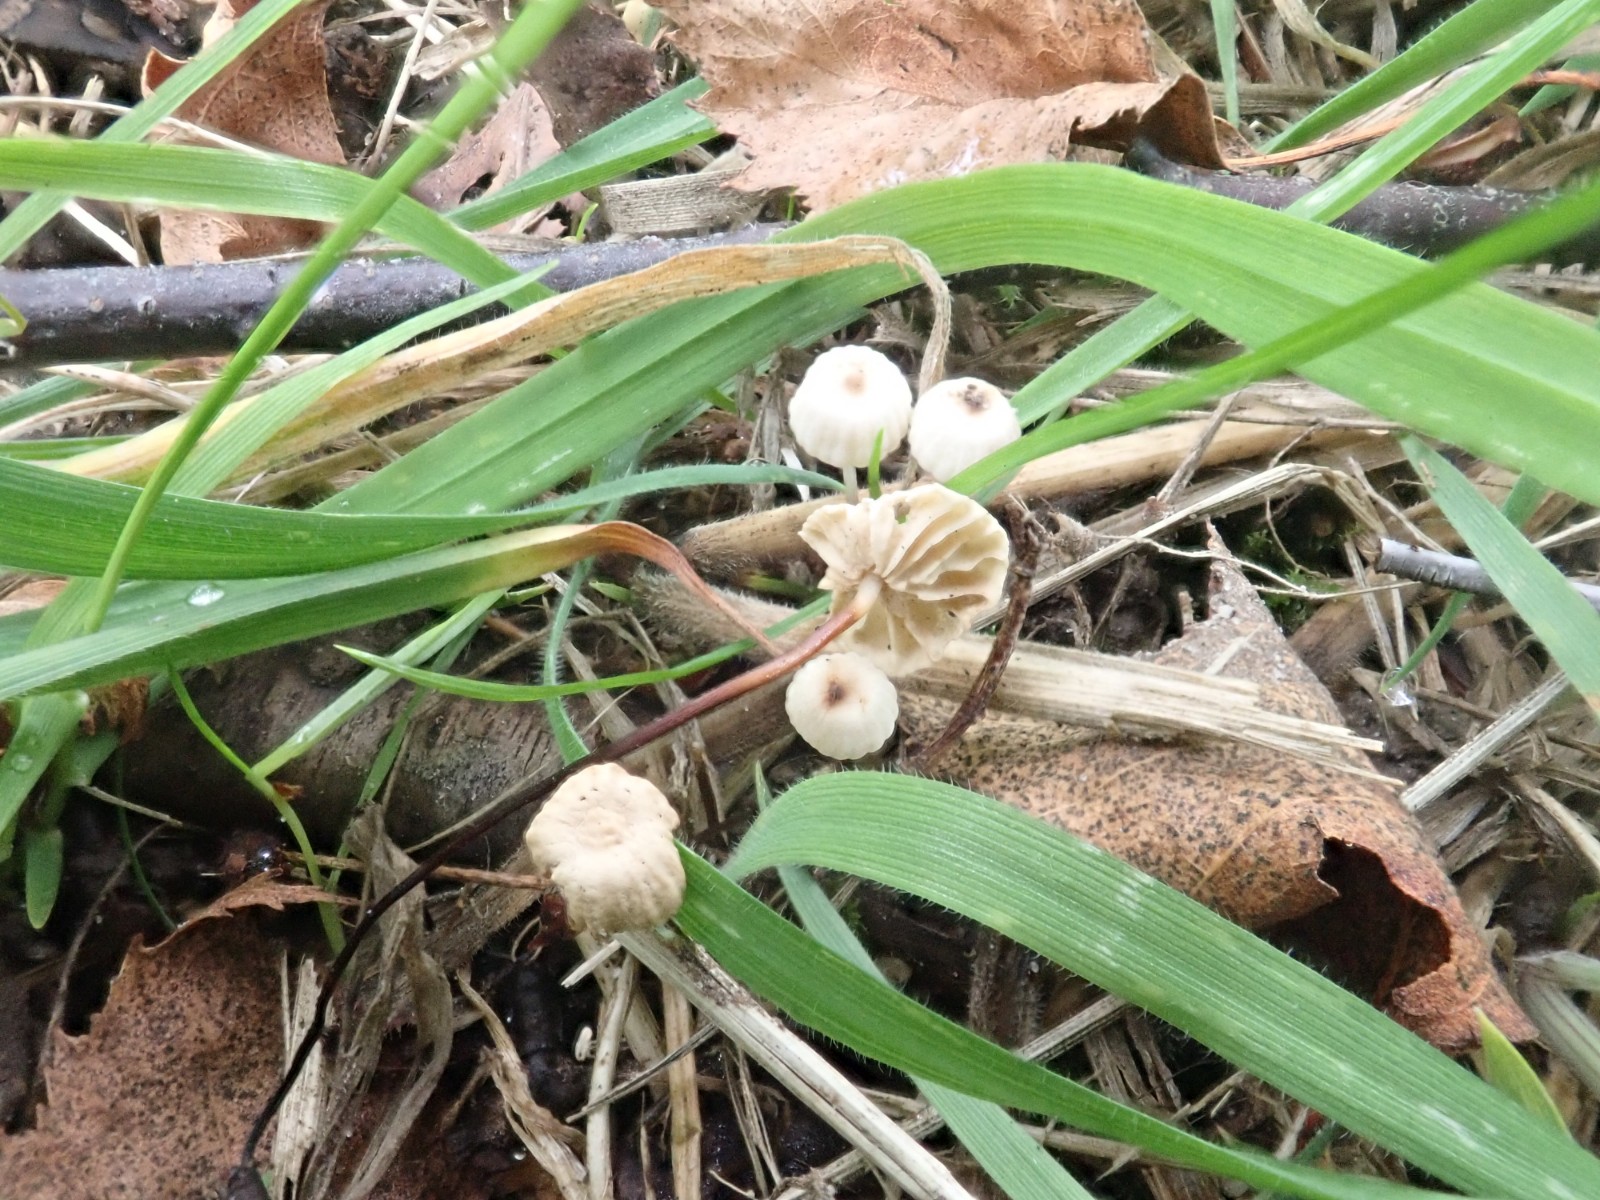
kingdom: Fungi
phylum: Basidiomycota
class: Agaricomycetes
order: Agaricales
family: Marasmiaceae
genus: Marasmius
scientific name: Marasmius rotula
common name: hjul-bruskhat
